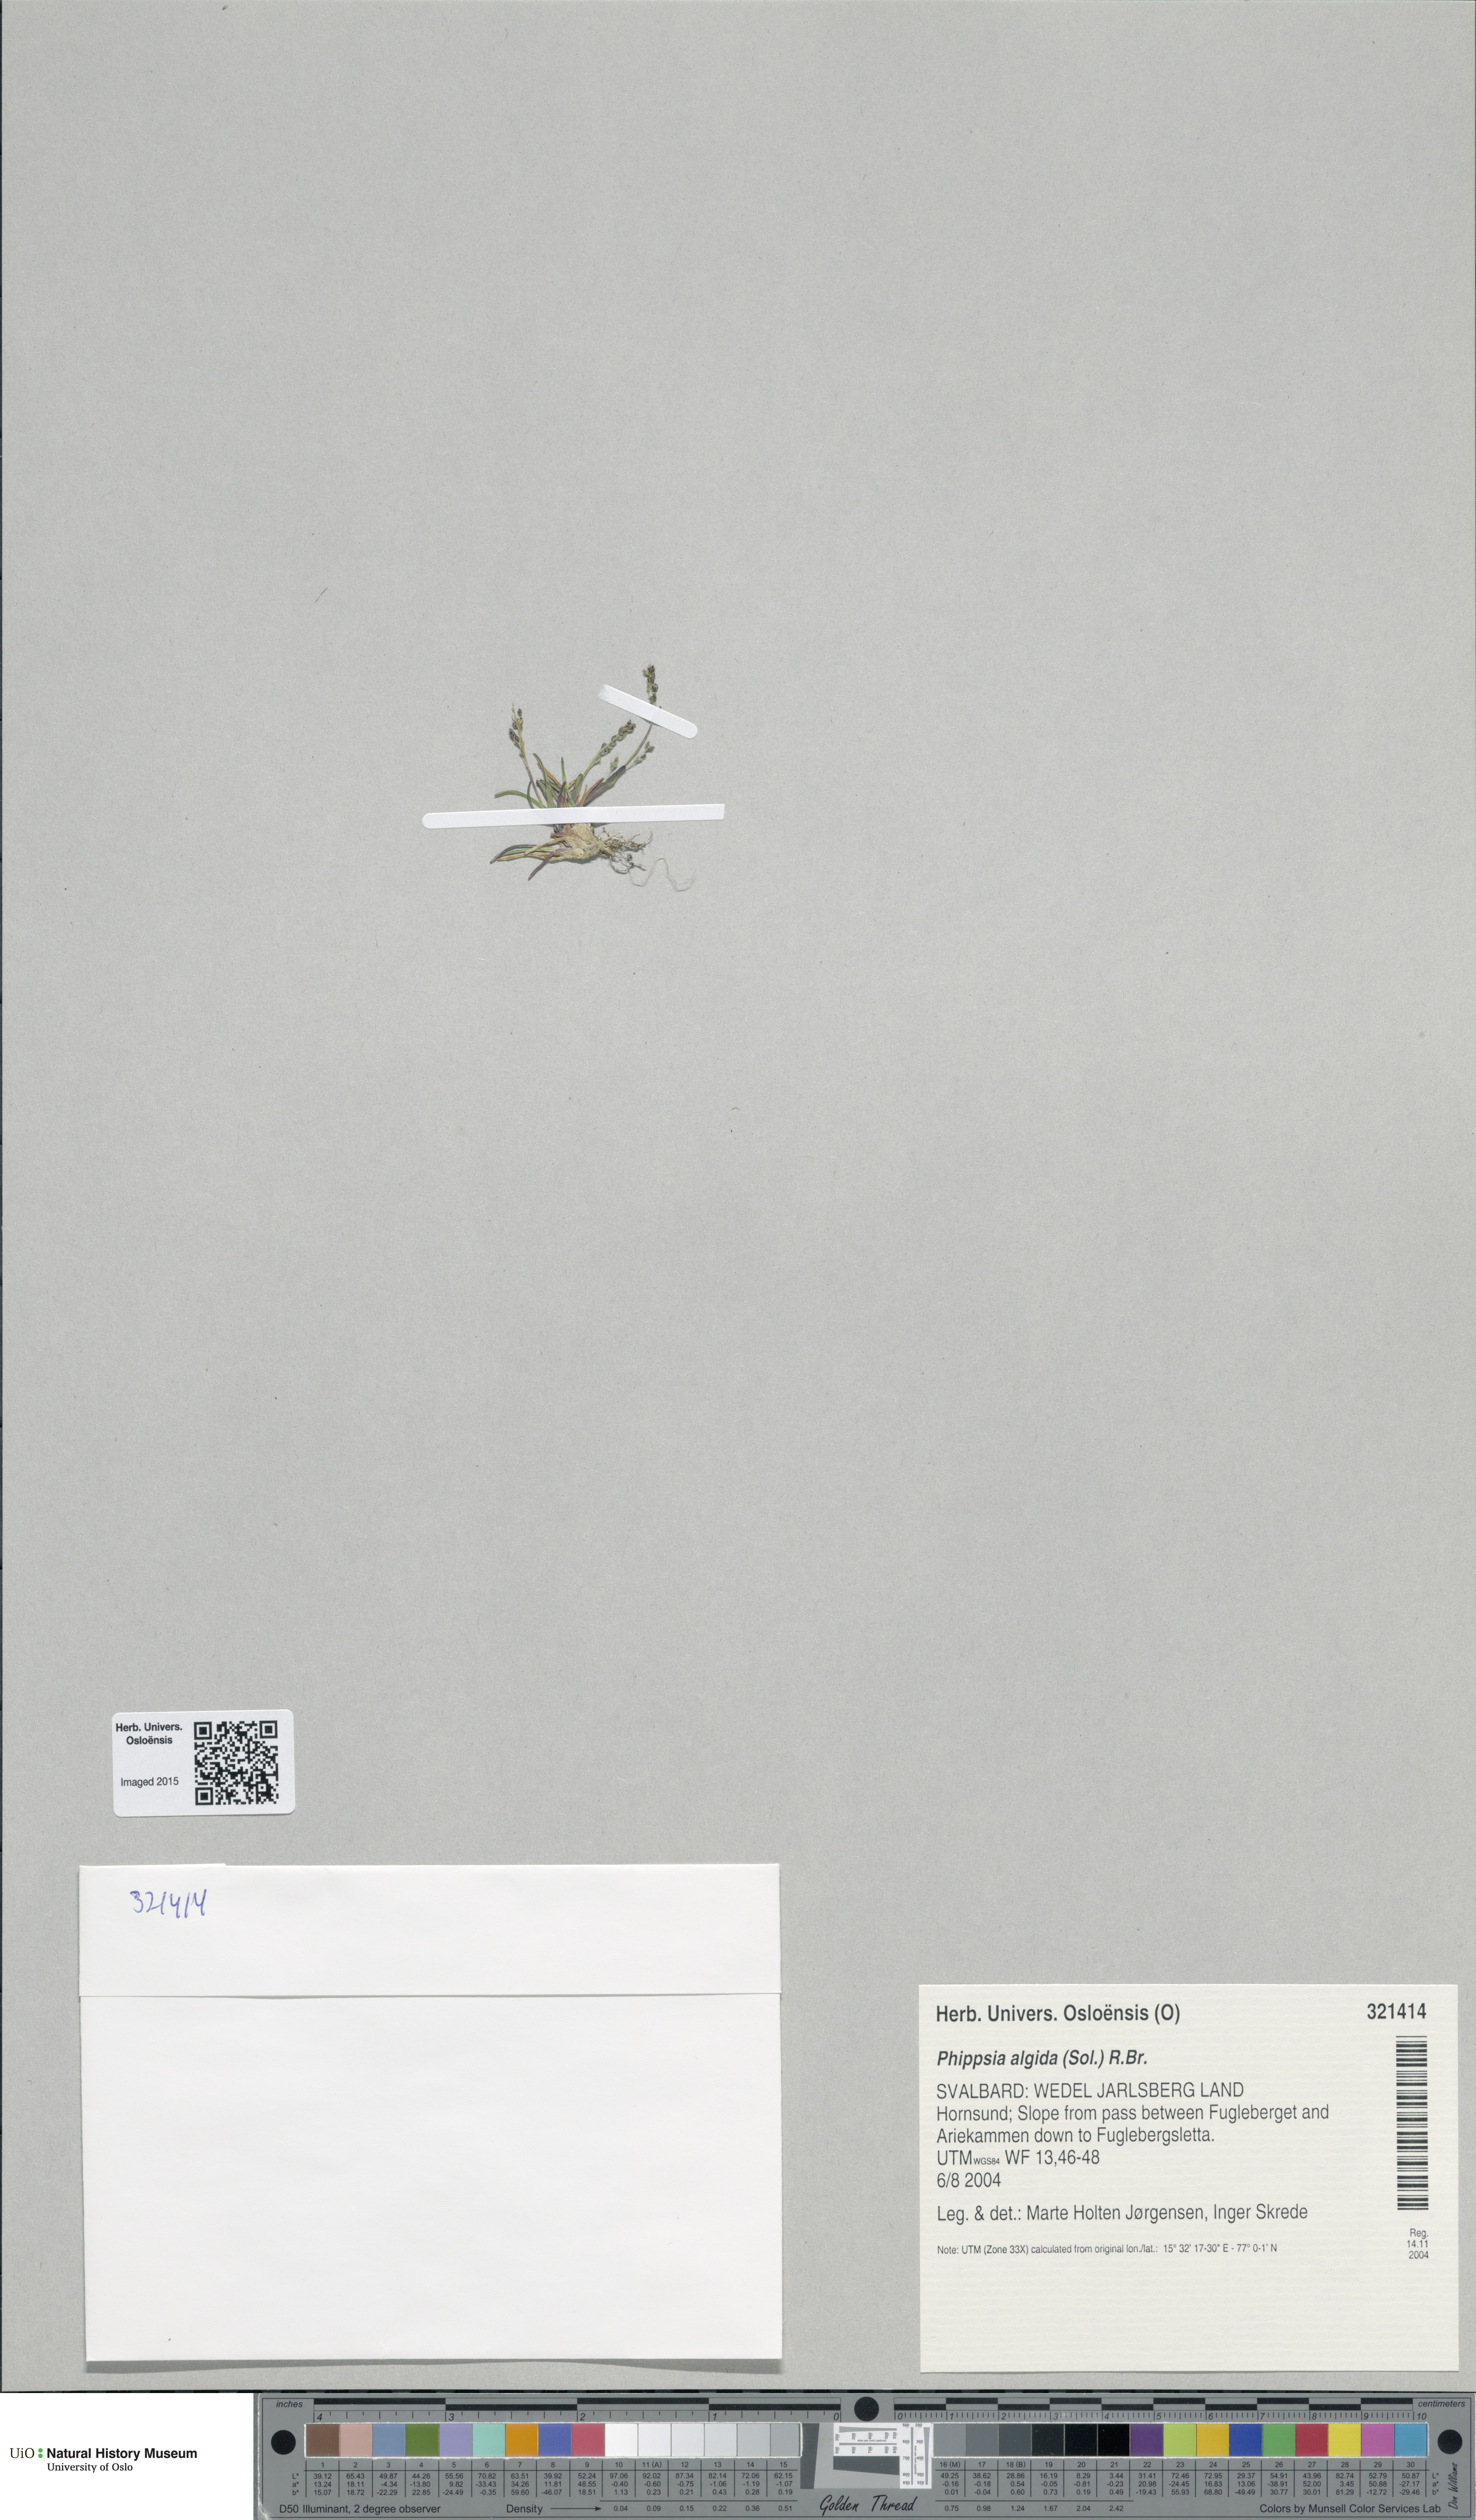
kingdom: Plantae
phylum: Tracheophyta
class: Liliopsida
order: Poales
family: Poaceae
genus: Phippsia
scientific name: Phippsia algida
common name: Ice grass
